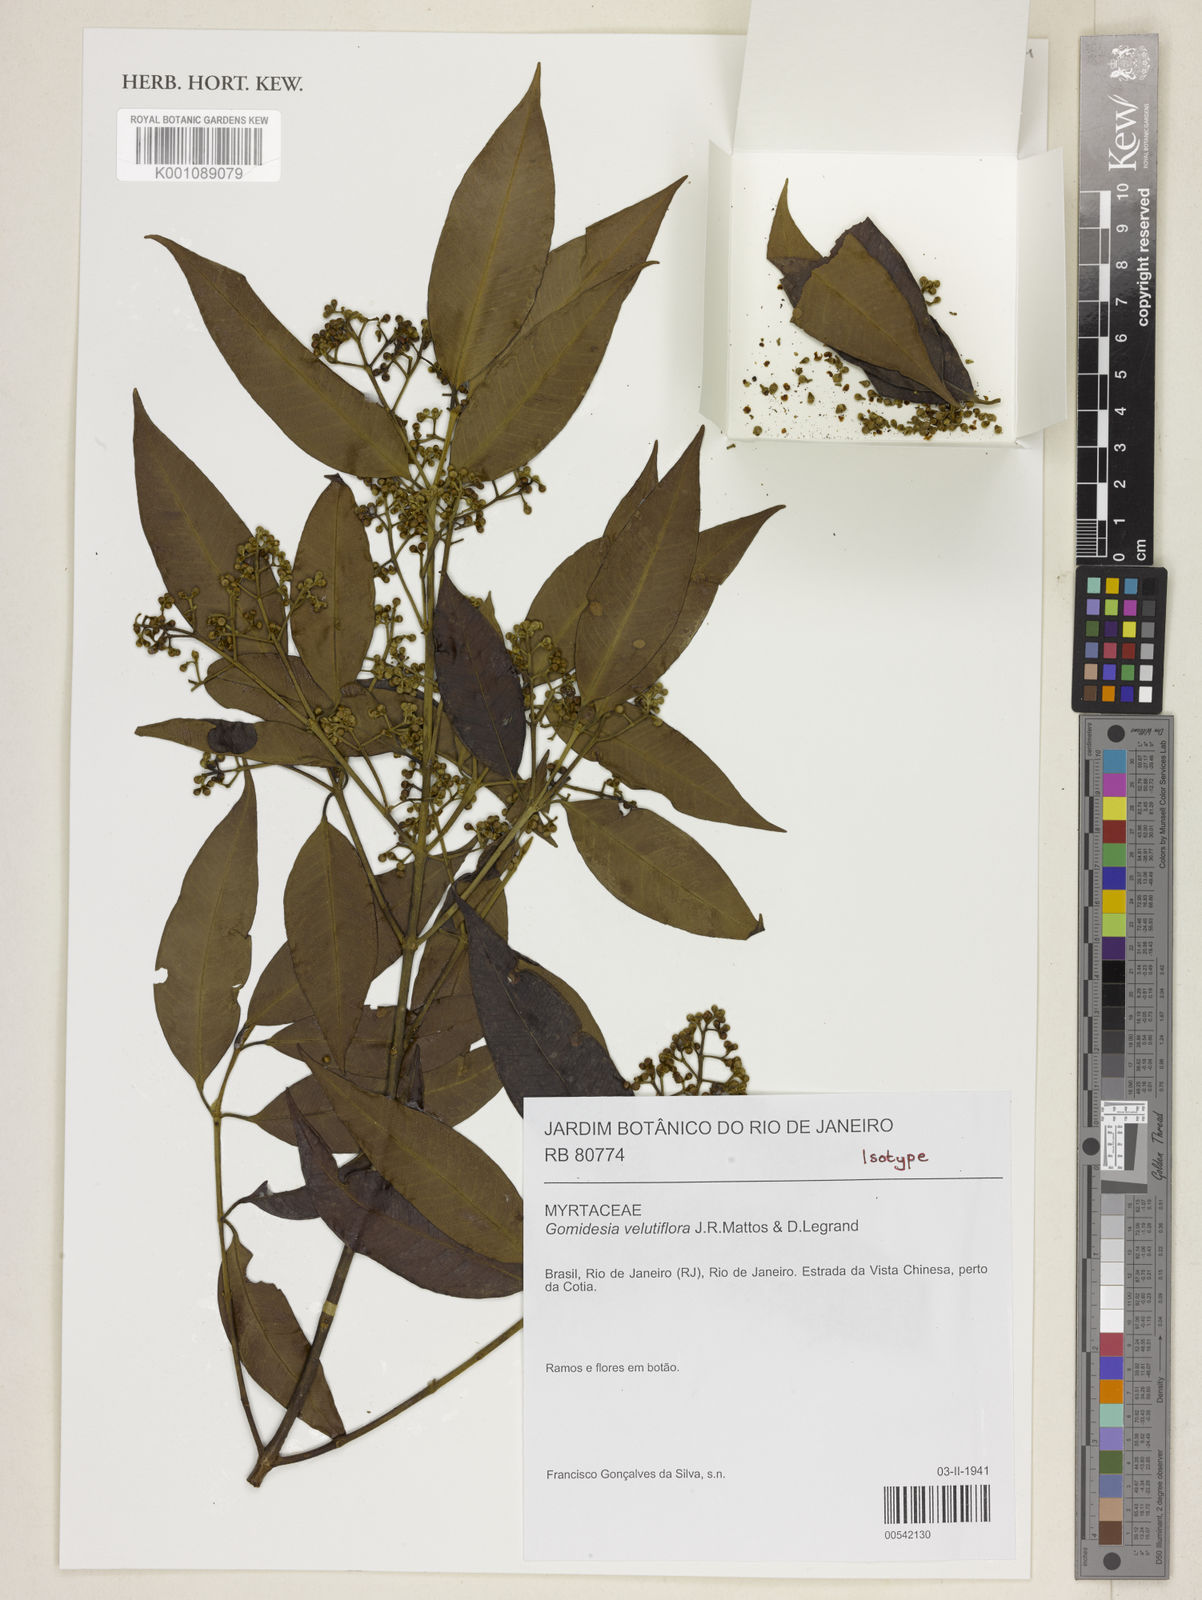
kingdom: Plantae
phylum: Tracheophyta
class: Magnoliopsida
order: Myrtales
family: Myrtaceae
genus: Myrcia
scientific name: Myrcia velutiflora
